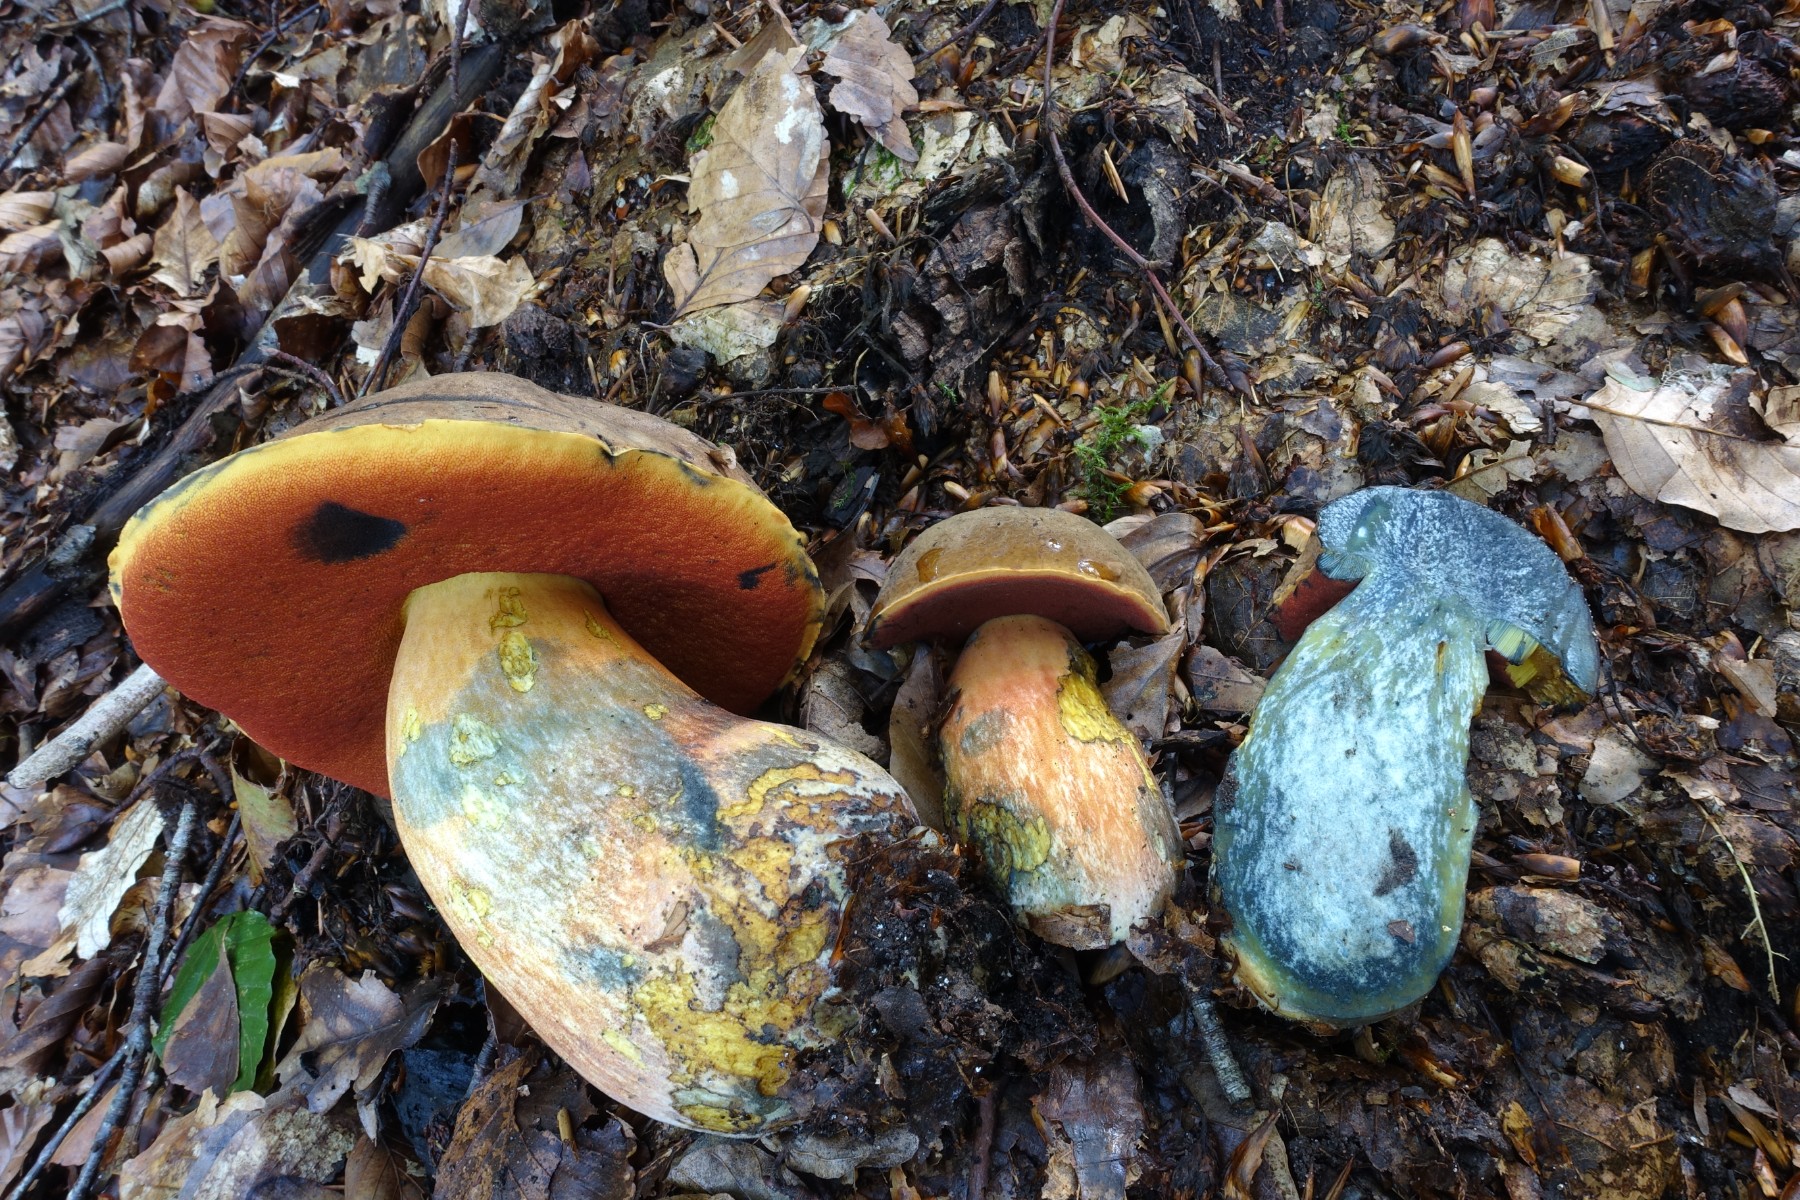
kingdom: Fungi
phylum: Basidiomycota
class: Agaricomycetes
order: Boletales
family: Boletaceae
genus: Neoboletus
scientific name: Neoboletus erythropus
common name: punktstokket indigorørhat
